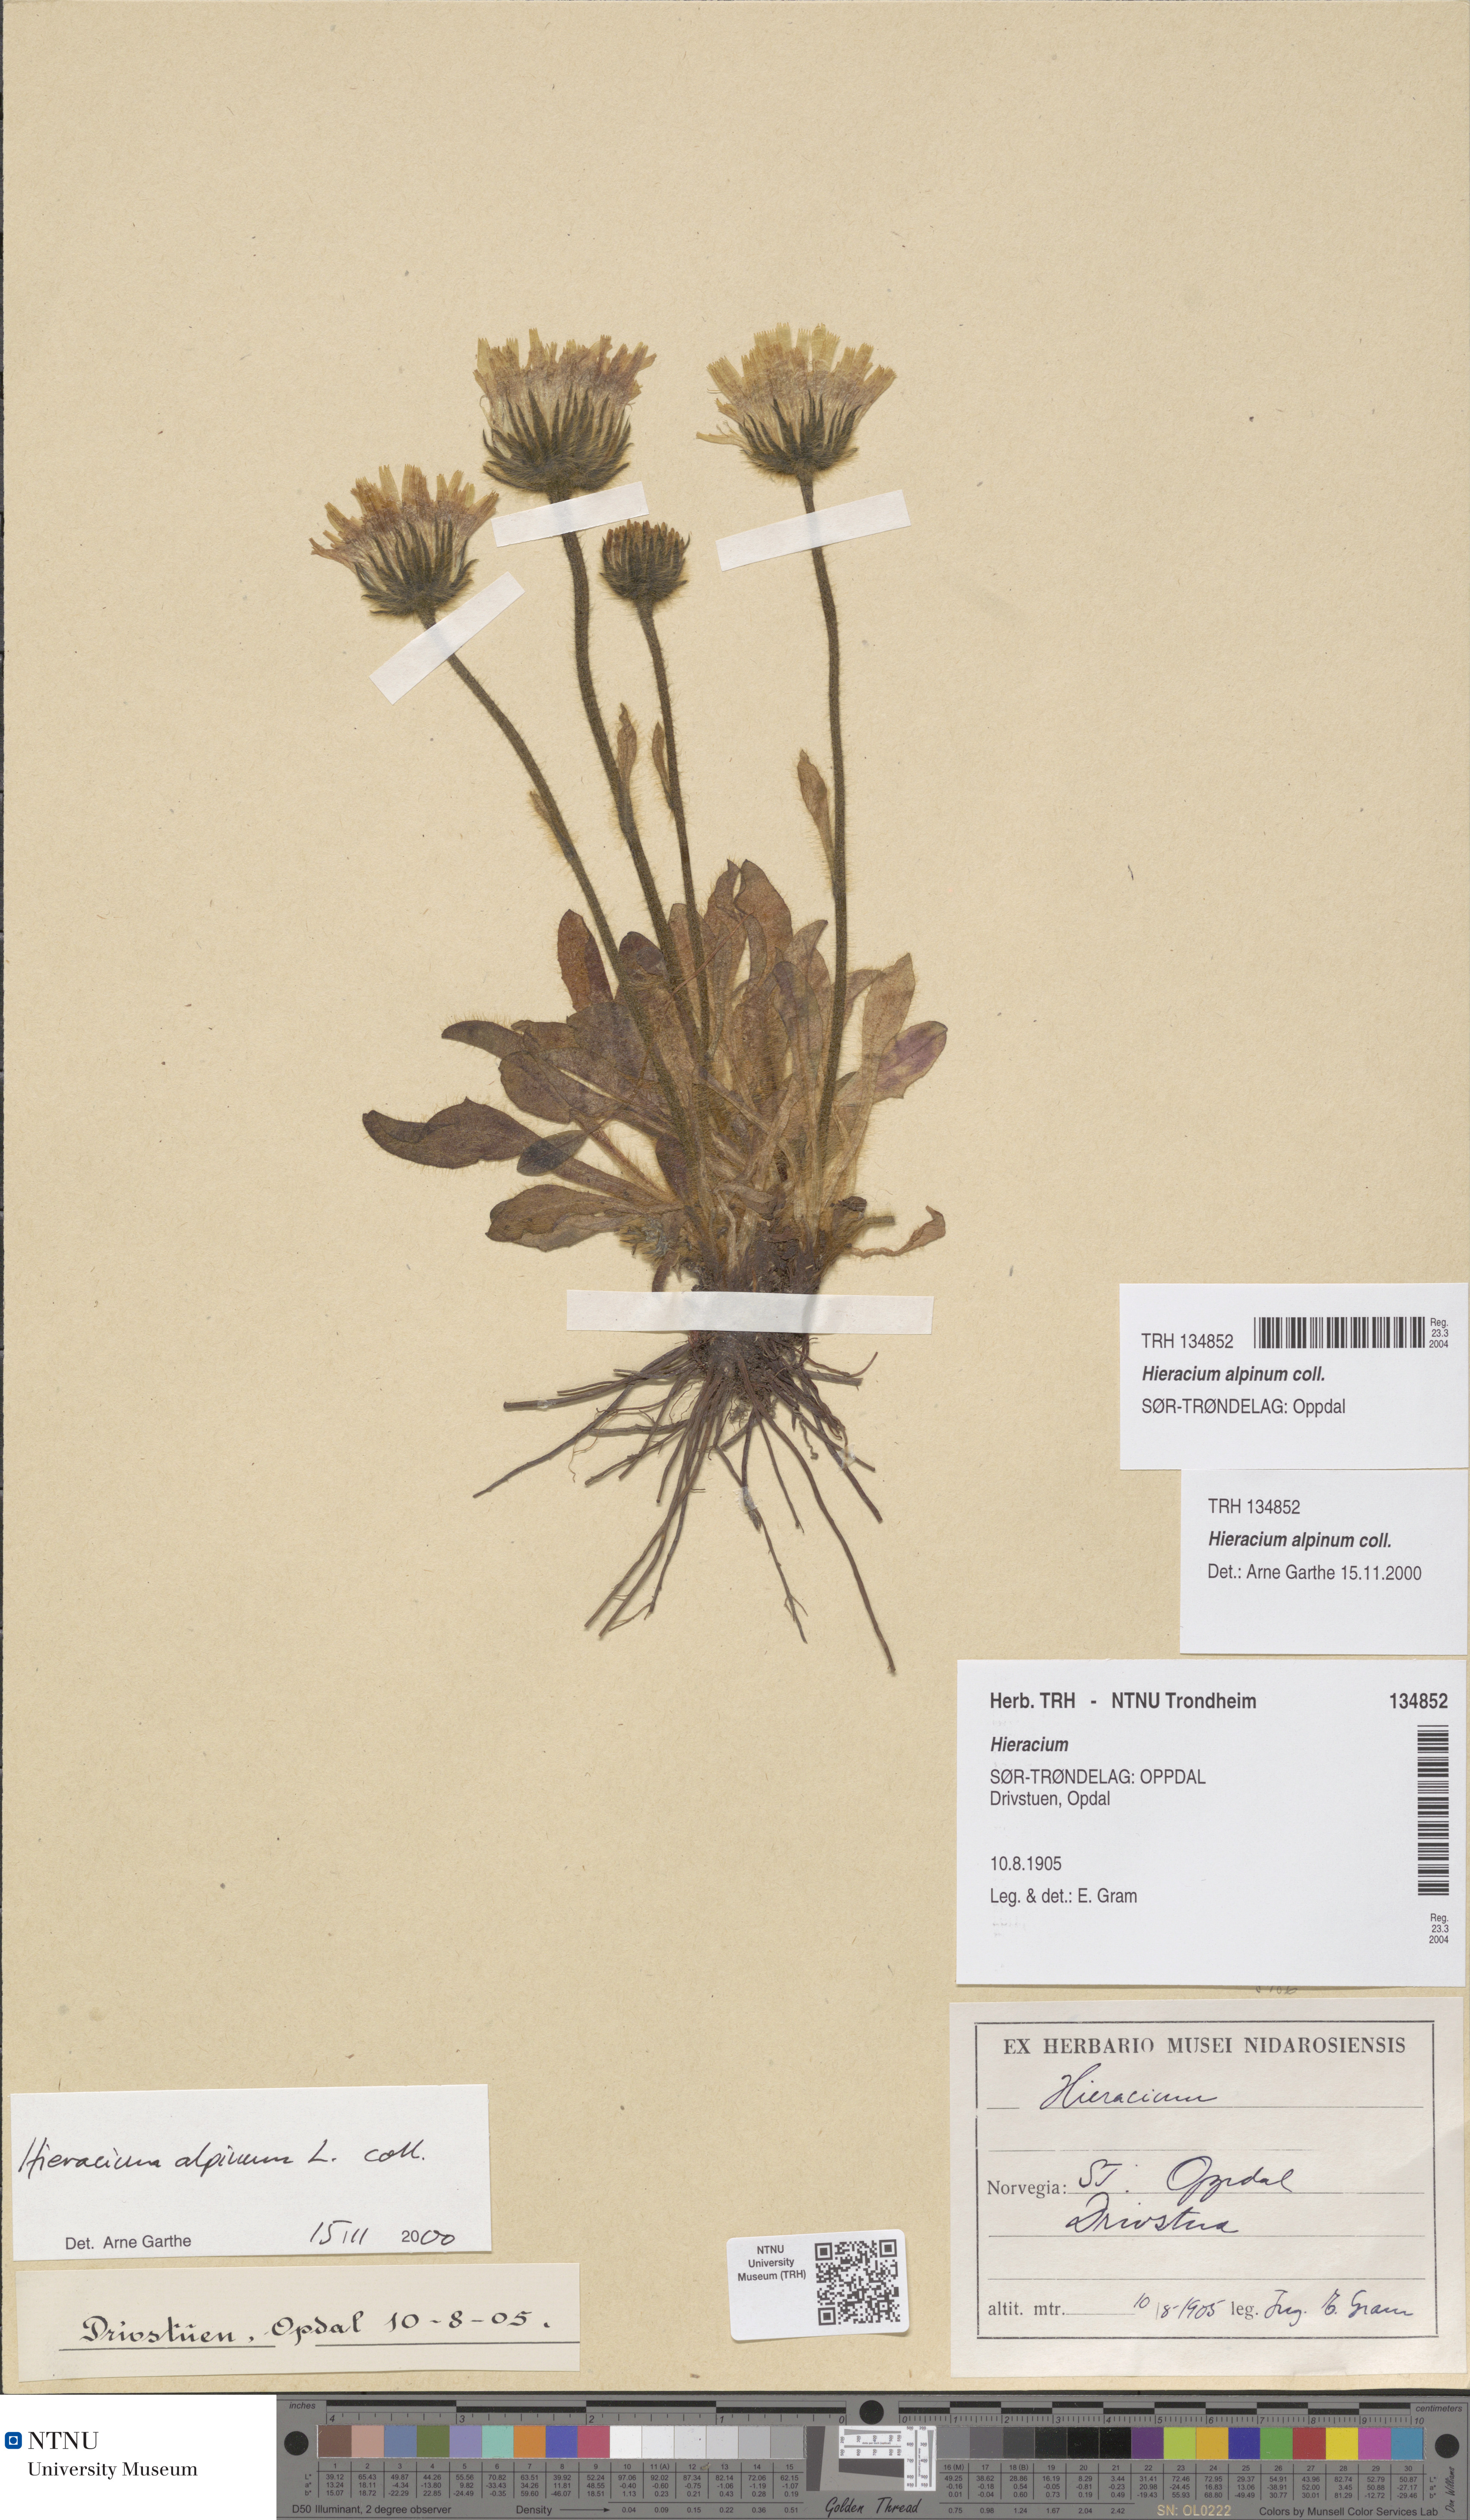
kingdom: Plantae
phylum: Tracheophyta
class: Magnoliopsida
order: Asterales
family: Asteraceae
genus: Hieracium
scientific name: Hieracium alpinum
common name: Alpine hawkweed
